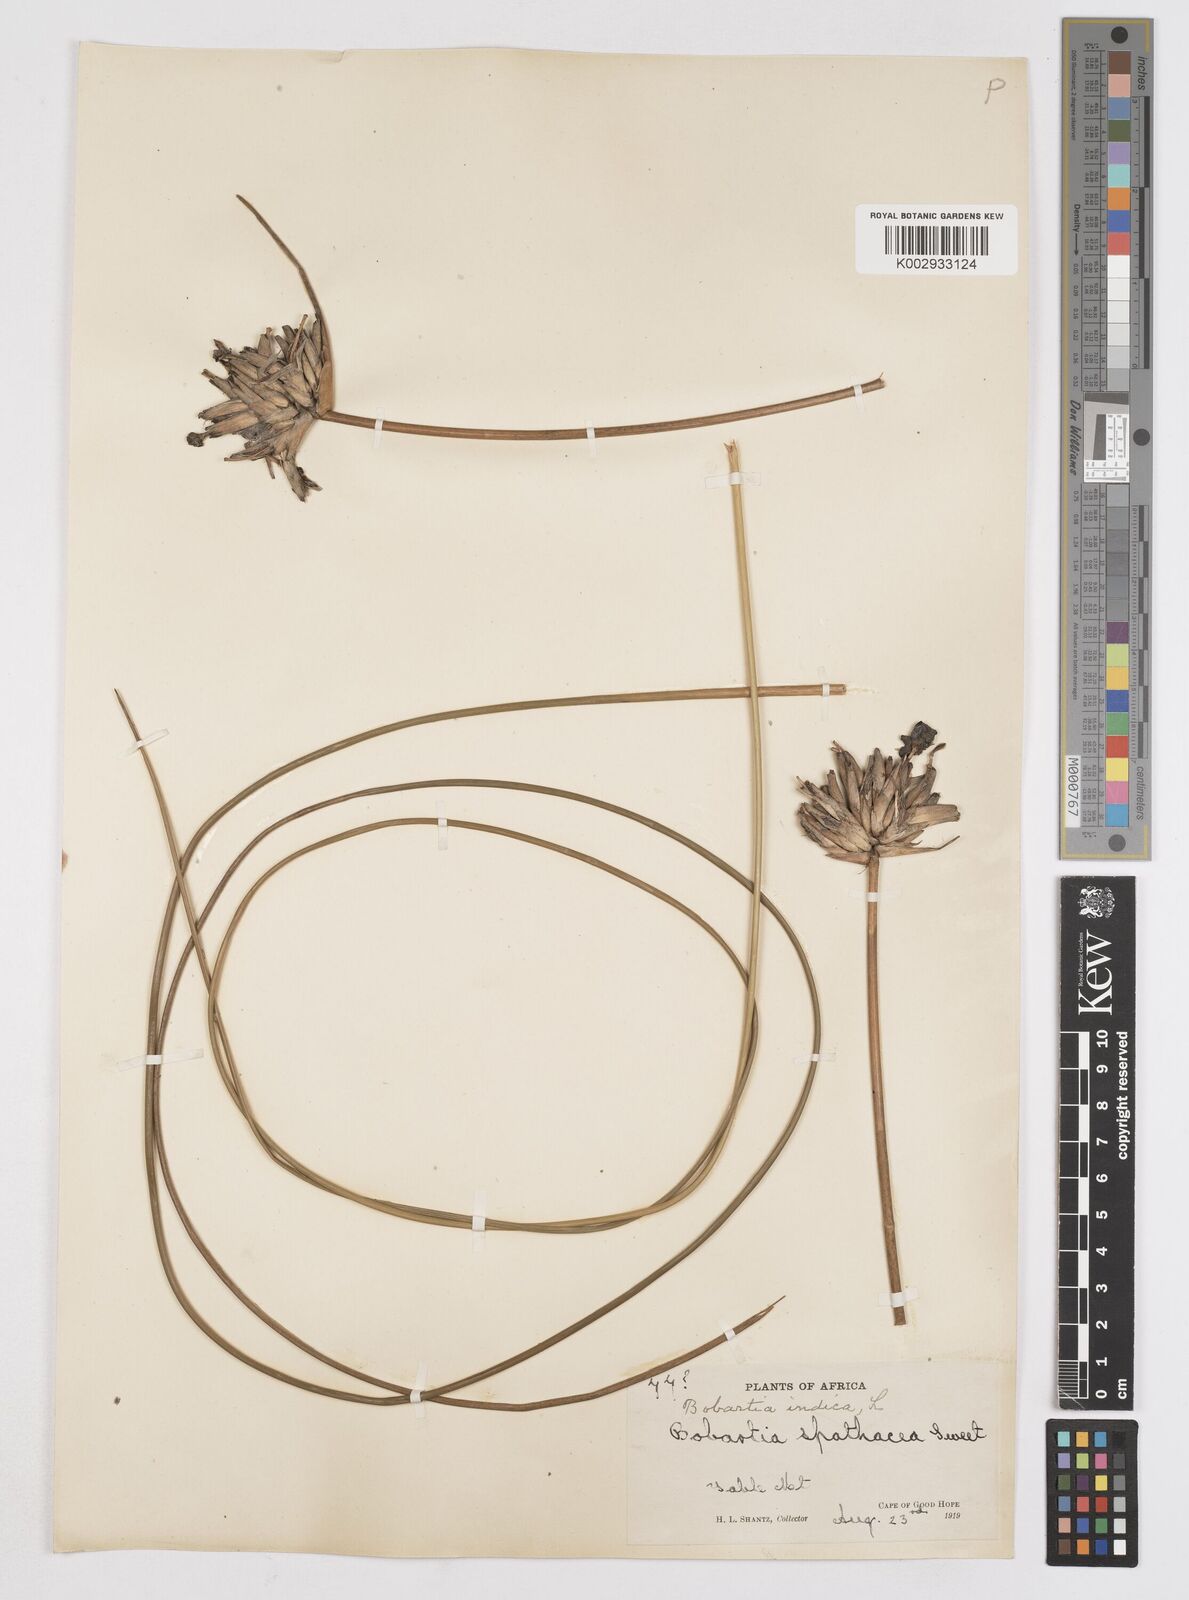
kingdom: Plantae
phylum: Tracheophyta
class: Liliopsida
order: Asparagales
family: Iridaceae
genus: Bobartia
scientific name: Bobartia indica
